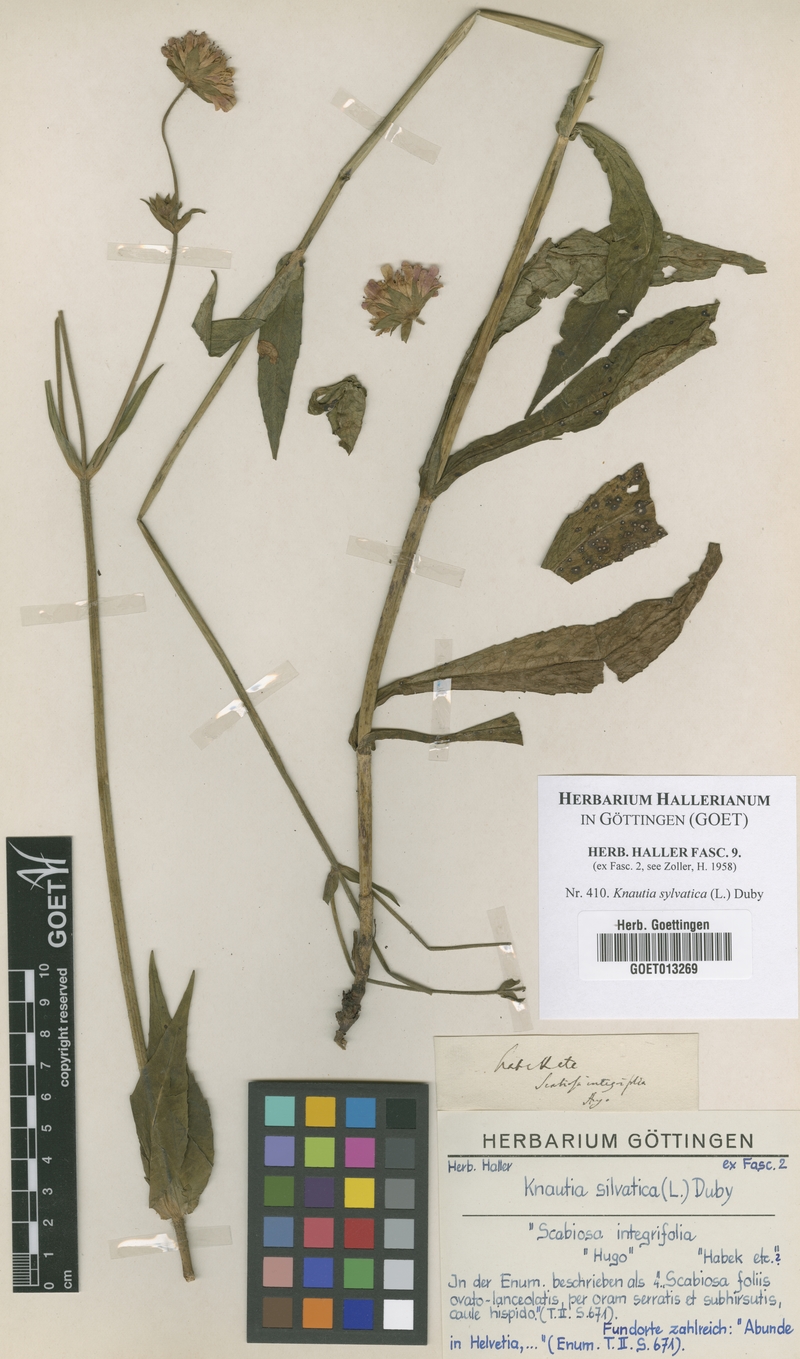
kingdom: Plantae
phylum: Tracheophyta
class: Magnoliopsida
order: Dipsacales
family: Caprifoliaceae
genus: Knautia
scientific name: Knautia drymeia
